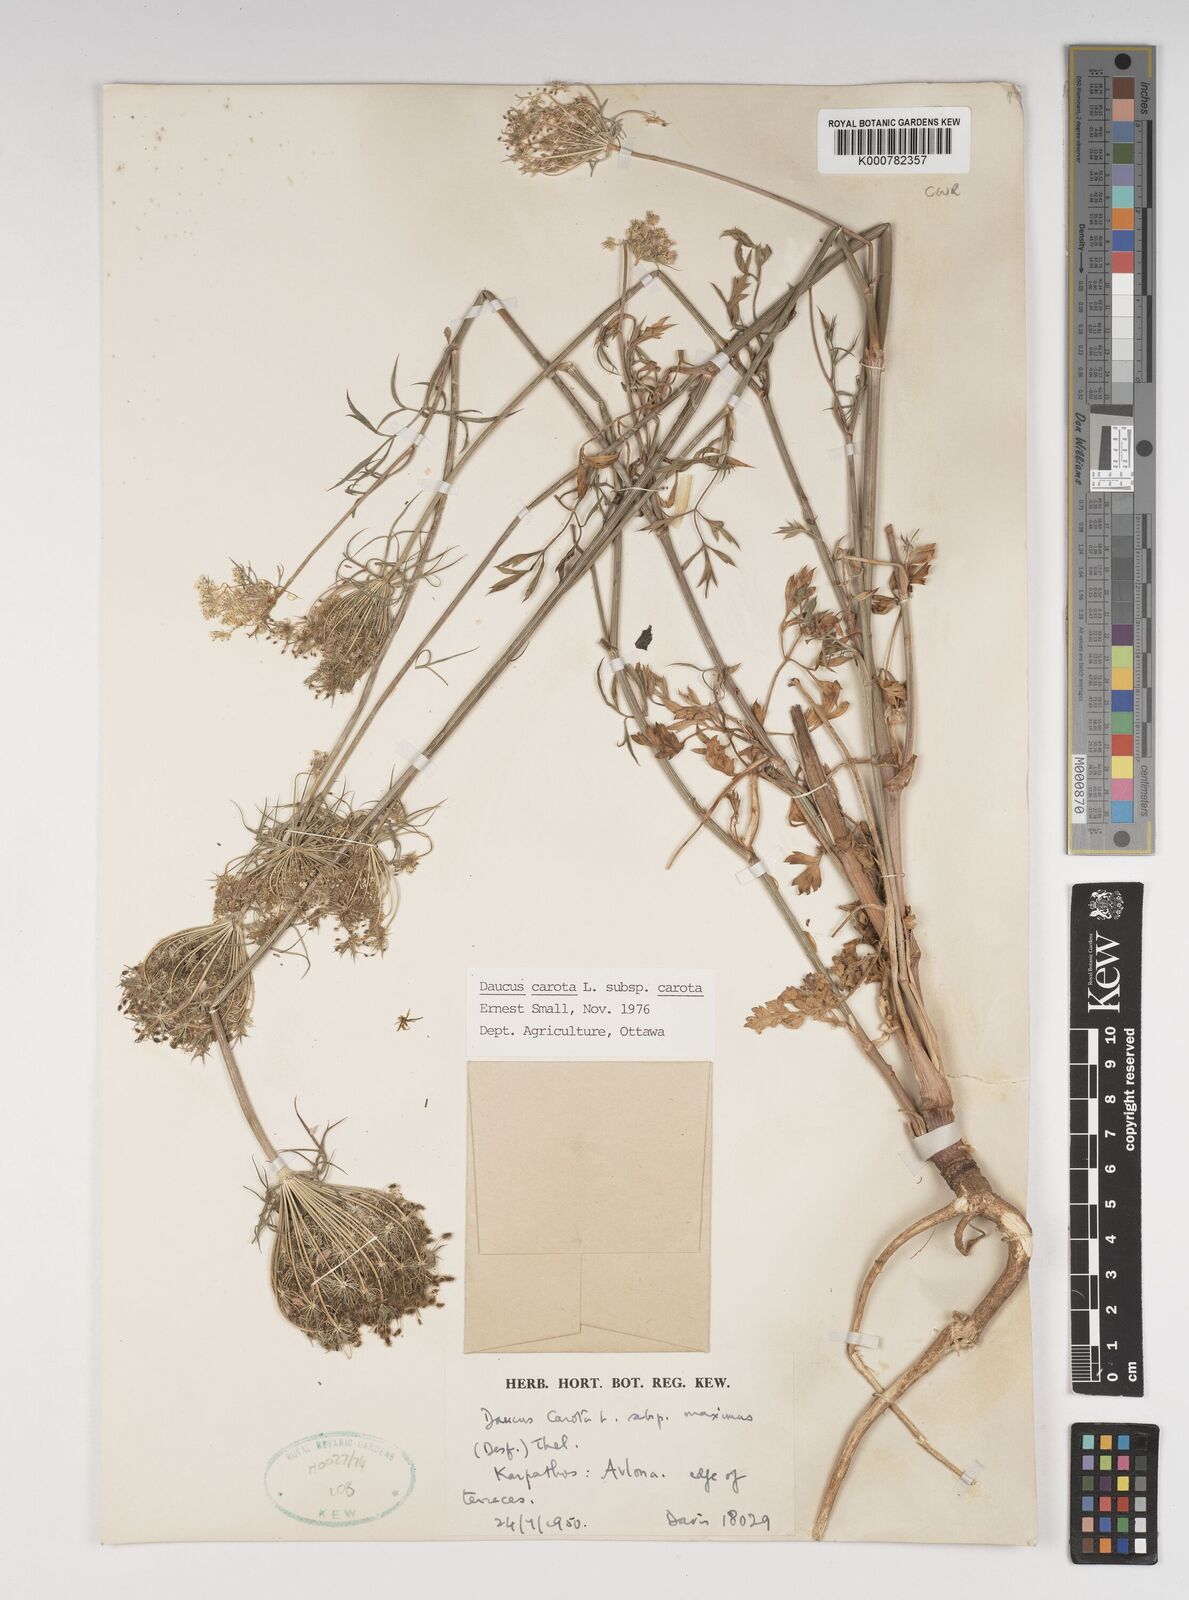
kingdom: Plantae
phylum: Tracheophyta
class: Magnoliopsida
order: Apiales
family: Apiaceae
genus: Daucus
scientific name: Daucus carota
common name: Wild carrot
